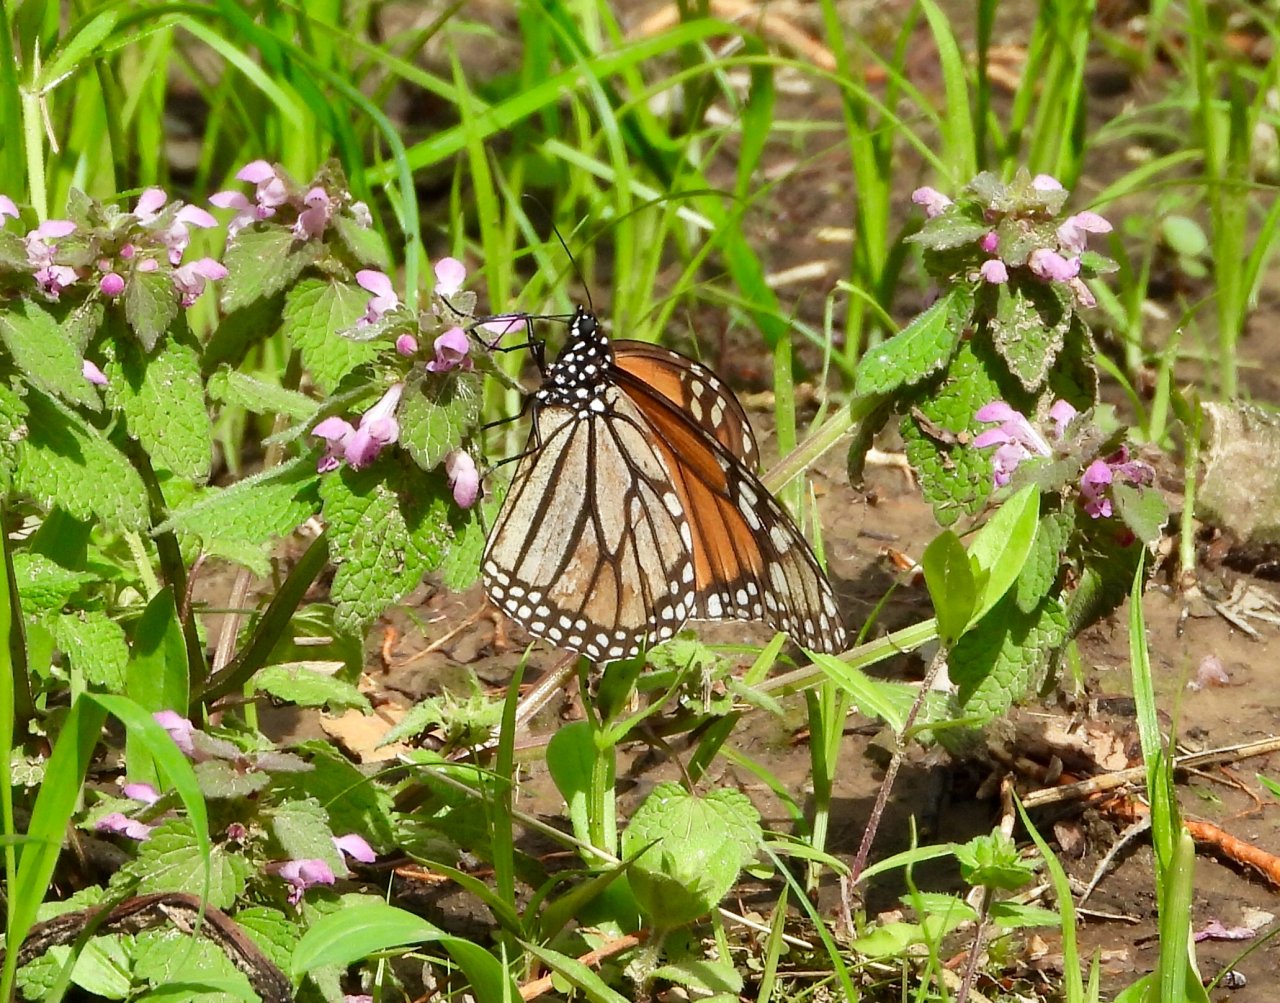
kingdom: Animalia
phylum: Arthropoda
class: Insecta
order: Lepidoptera
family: Nymphalidae
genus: Danaus
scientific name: Danaus plexippus
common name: Monarch
